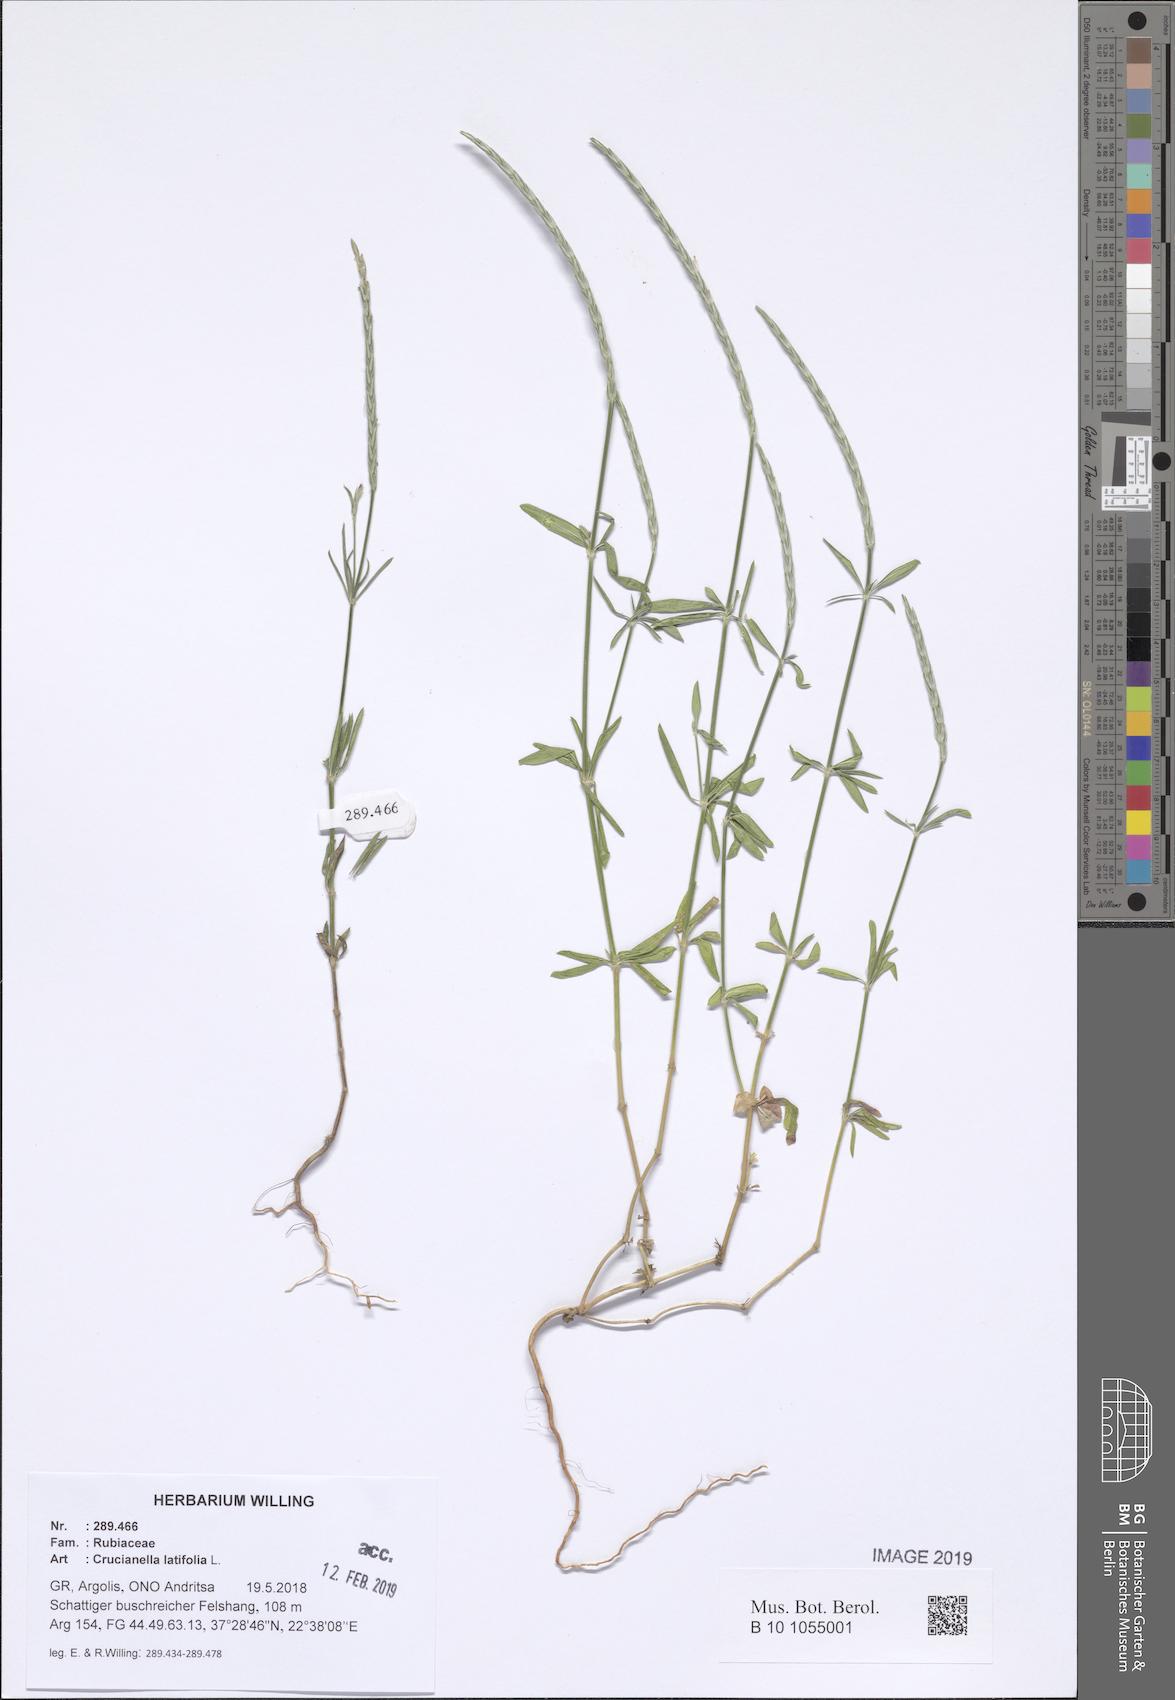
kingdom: Plantae
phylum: Tracheophyta
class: Magnoliopsida
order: Gentianales
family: Rubiaceae
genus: Crucianella
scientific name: Crucianella latifolia
